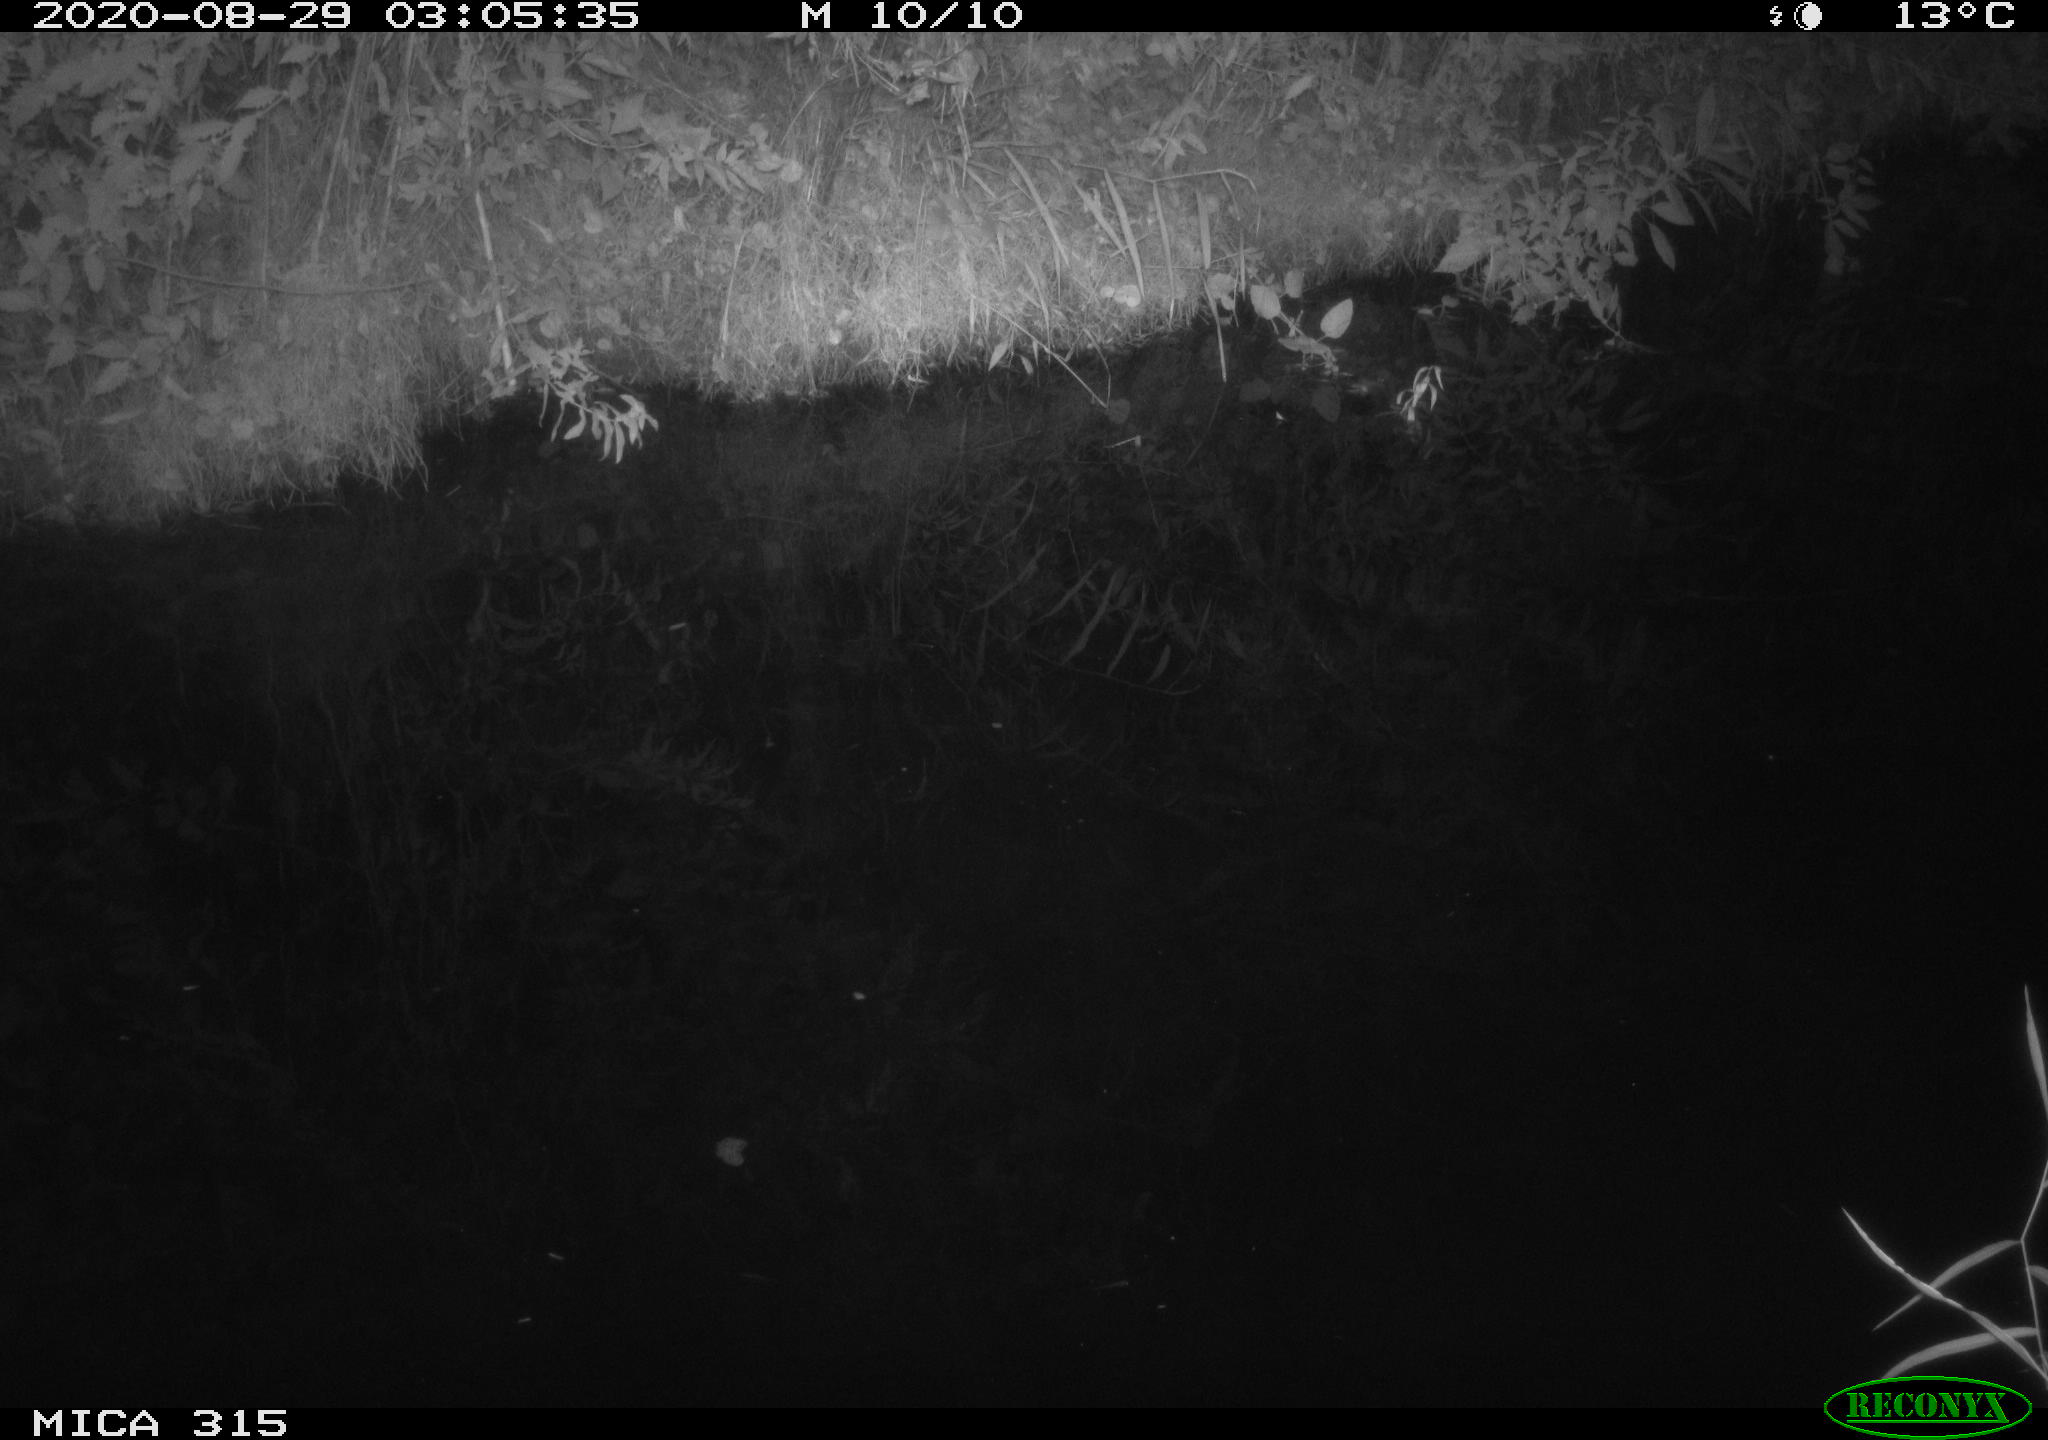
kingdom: Animalia
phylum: Chordata
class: Aves
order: Anseriformes
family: Anatidae
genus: Anas
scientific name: Anas platyrhynchos
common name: Mallard
